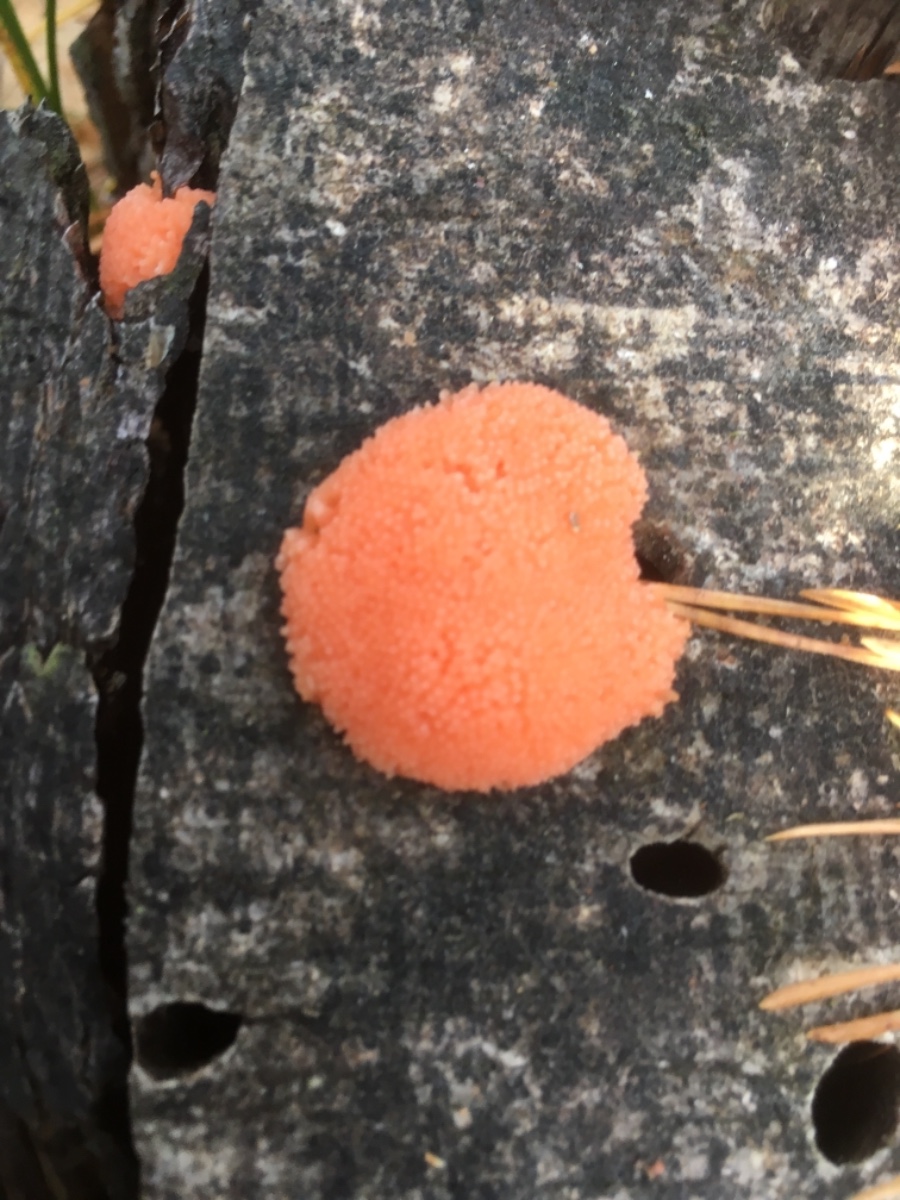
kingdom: Protozoa
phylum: Mycetozoa
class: Myxomycetes
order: Cribrariales
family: Tubiferaceae
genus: Tubifera
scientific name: Tubifera ferruginosa
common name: kanel-støvrør
